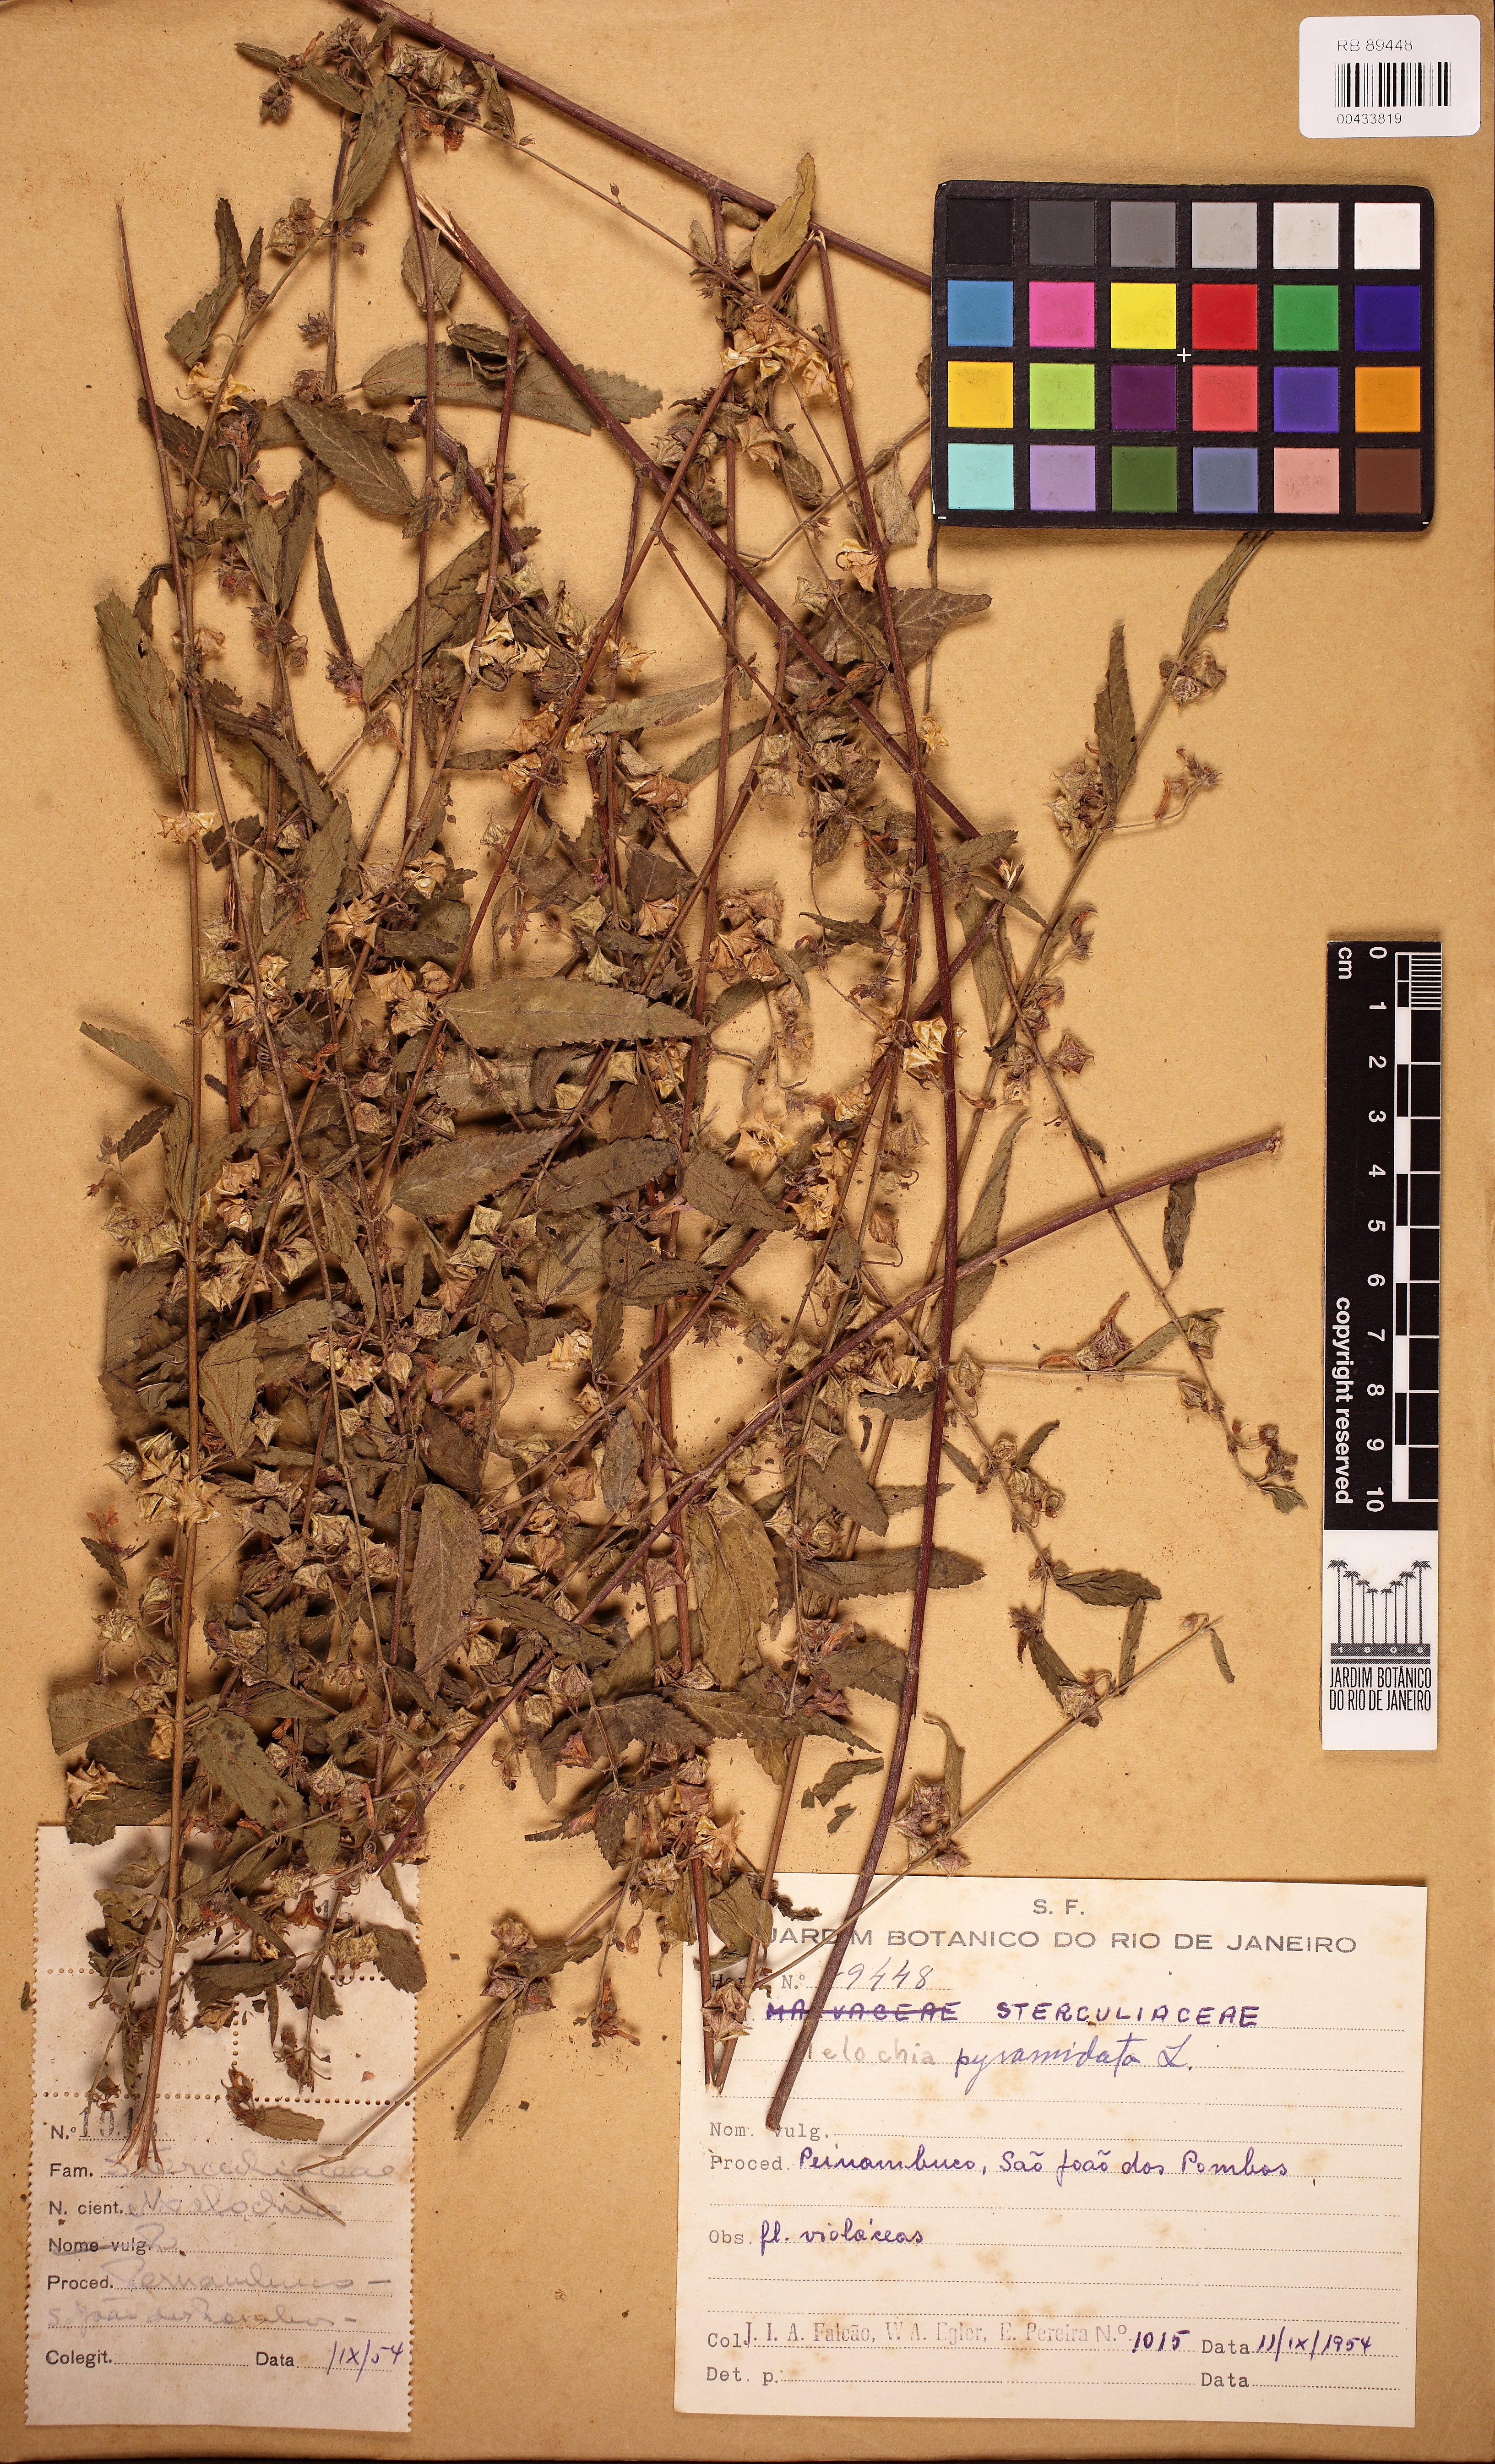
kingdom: Plantae
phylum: Tracheophyta
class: Magnoliopsida
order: Malvales
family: Malvaceae
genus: Melochia
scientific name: Melochia pyramidata
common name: Pyramidflower
